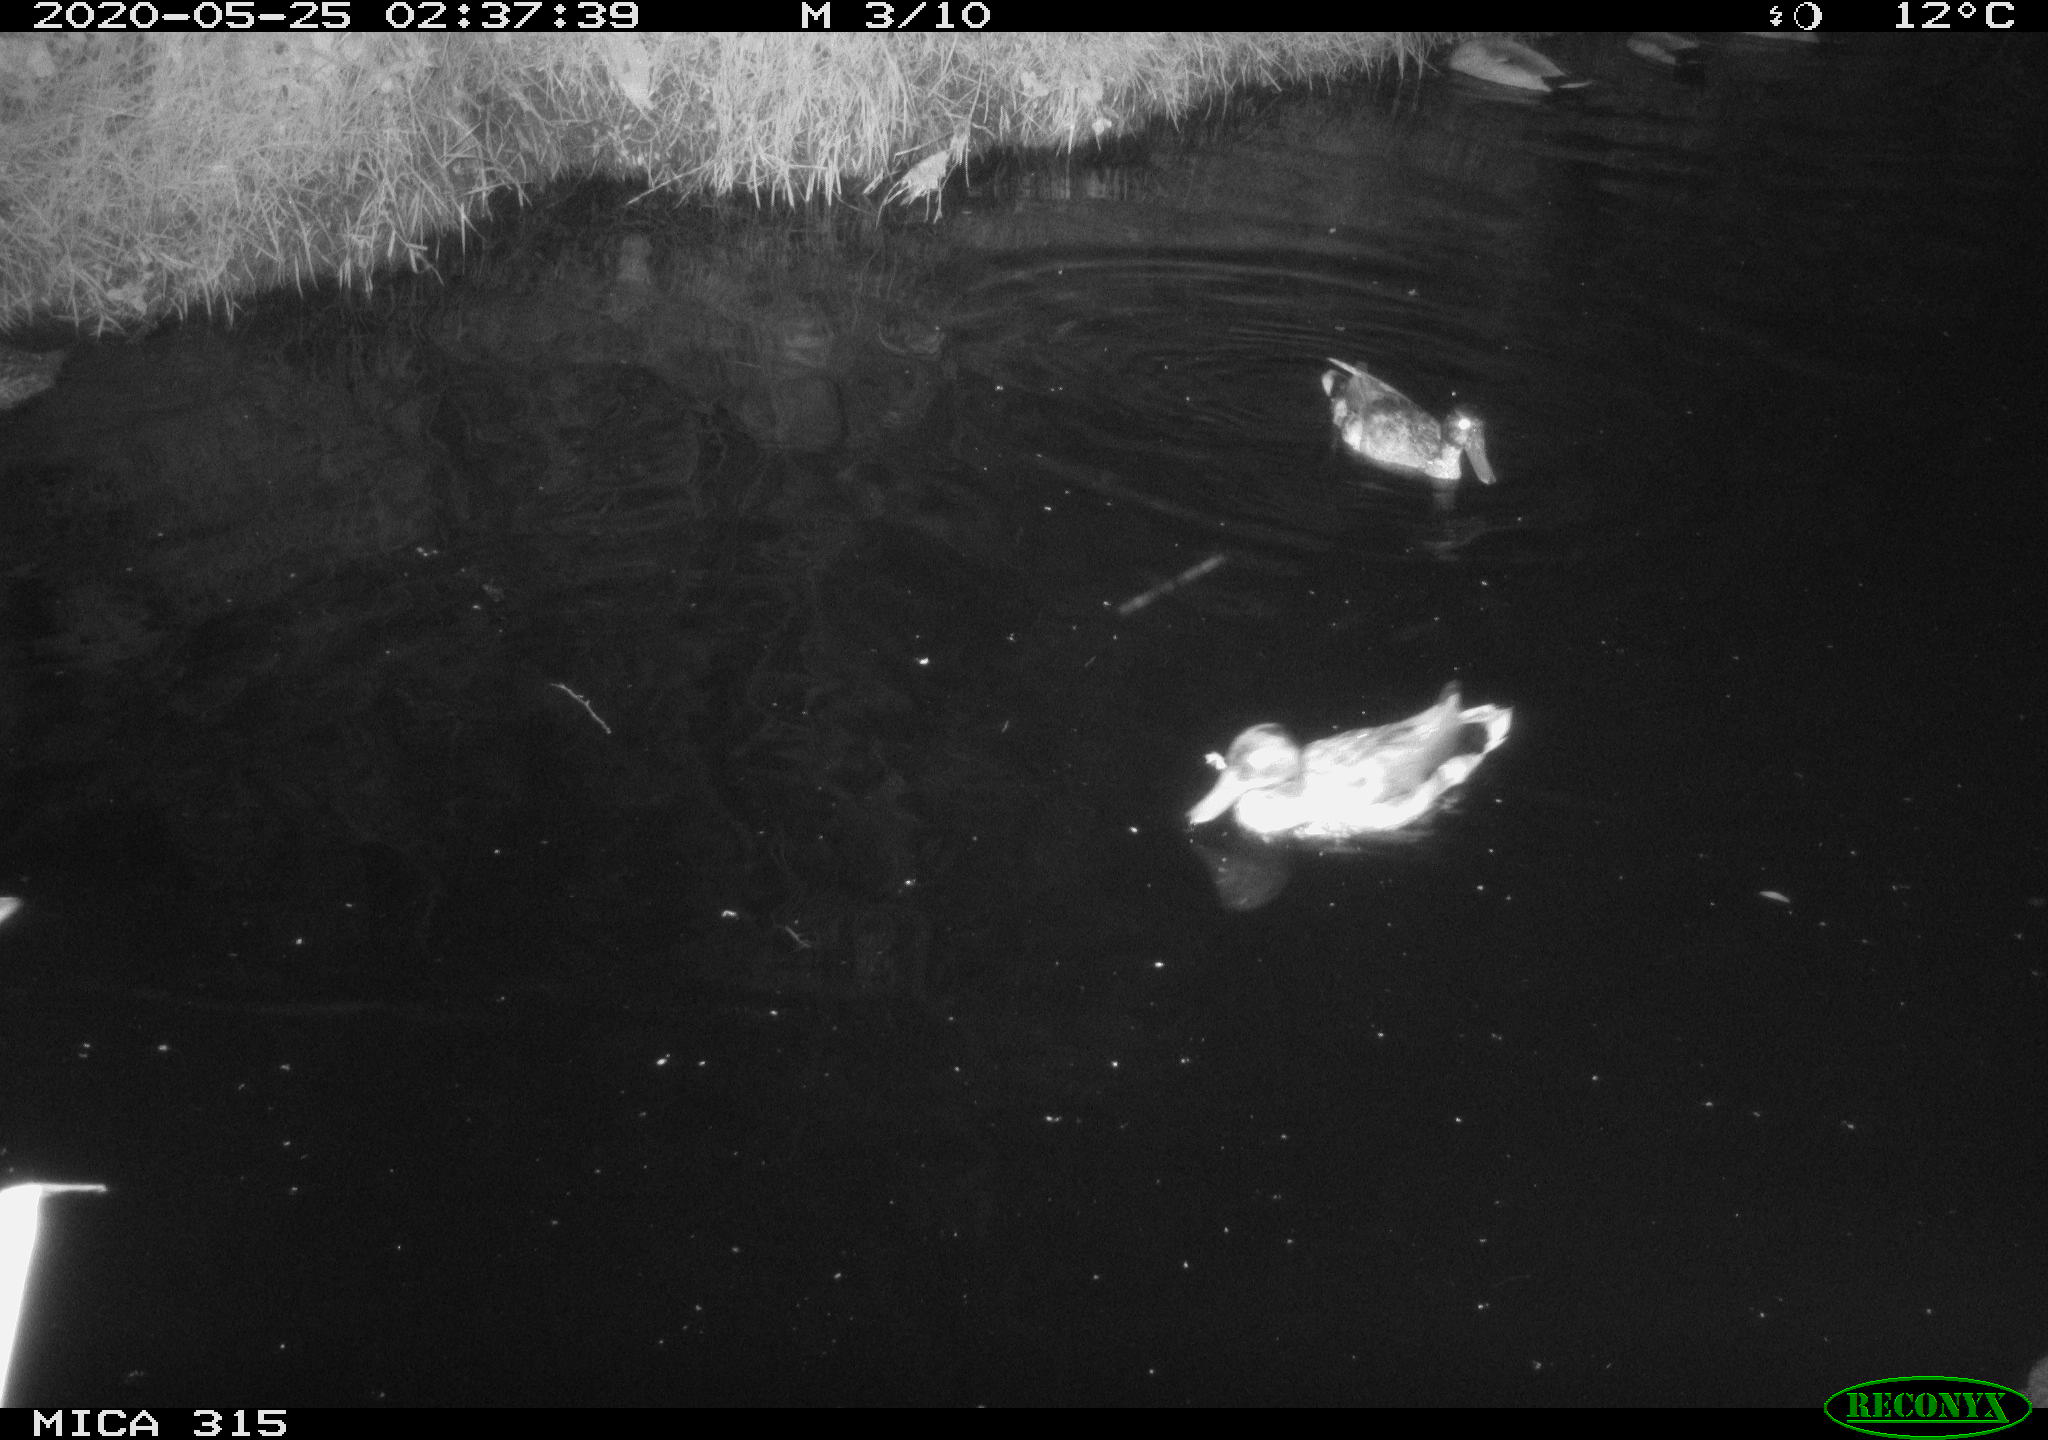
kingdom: Animalia
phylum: Chordata
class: Aves
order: Anseriformes
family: Anatidae
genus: Anas
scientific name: Anas platyrhynchos
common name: Mallard
